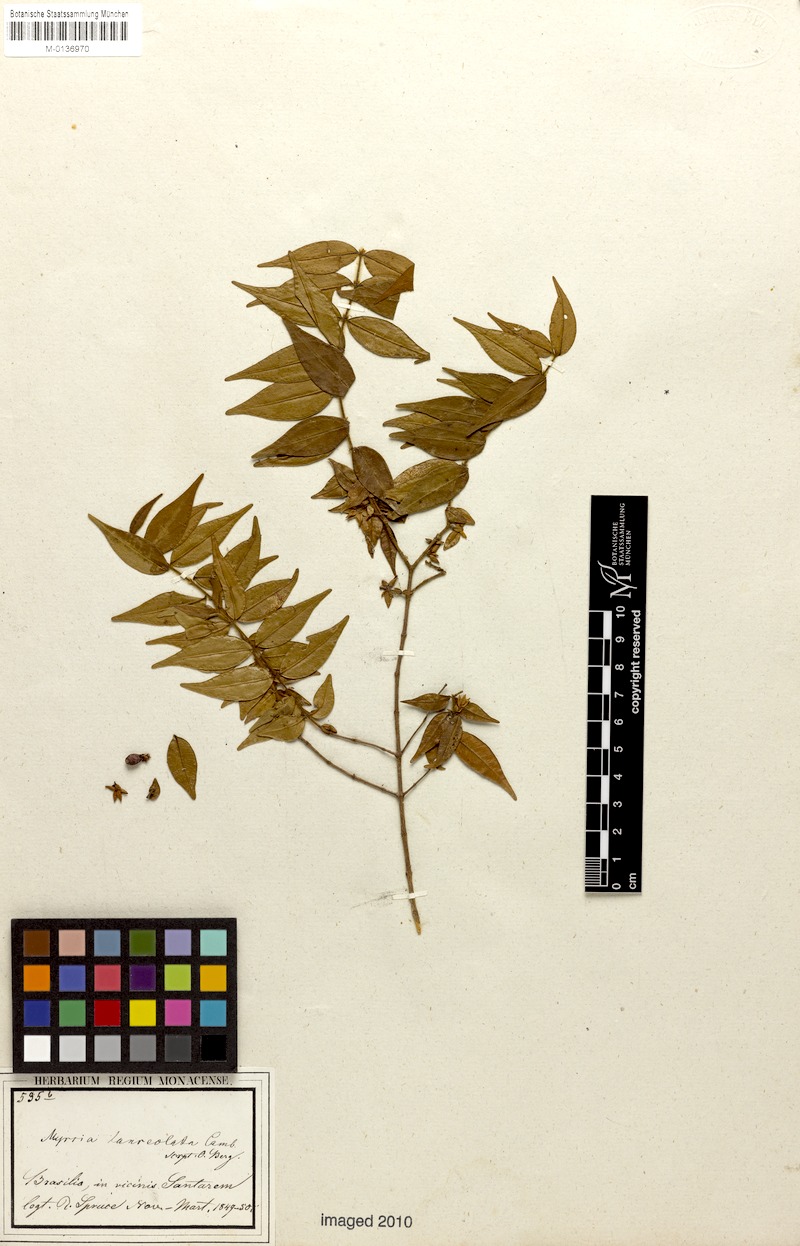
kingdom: Plantae
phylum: Tracheophyta
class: Magnoliopsida
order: Myrtales
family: Myrtaceae
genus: Myrcia
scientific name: Myrcia bracteata
